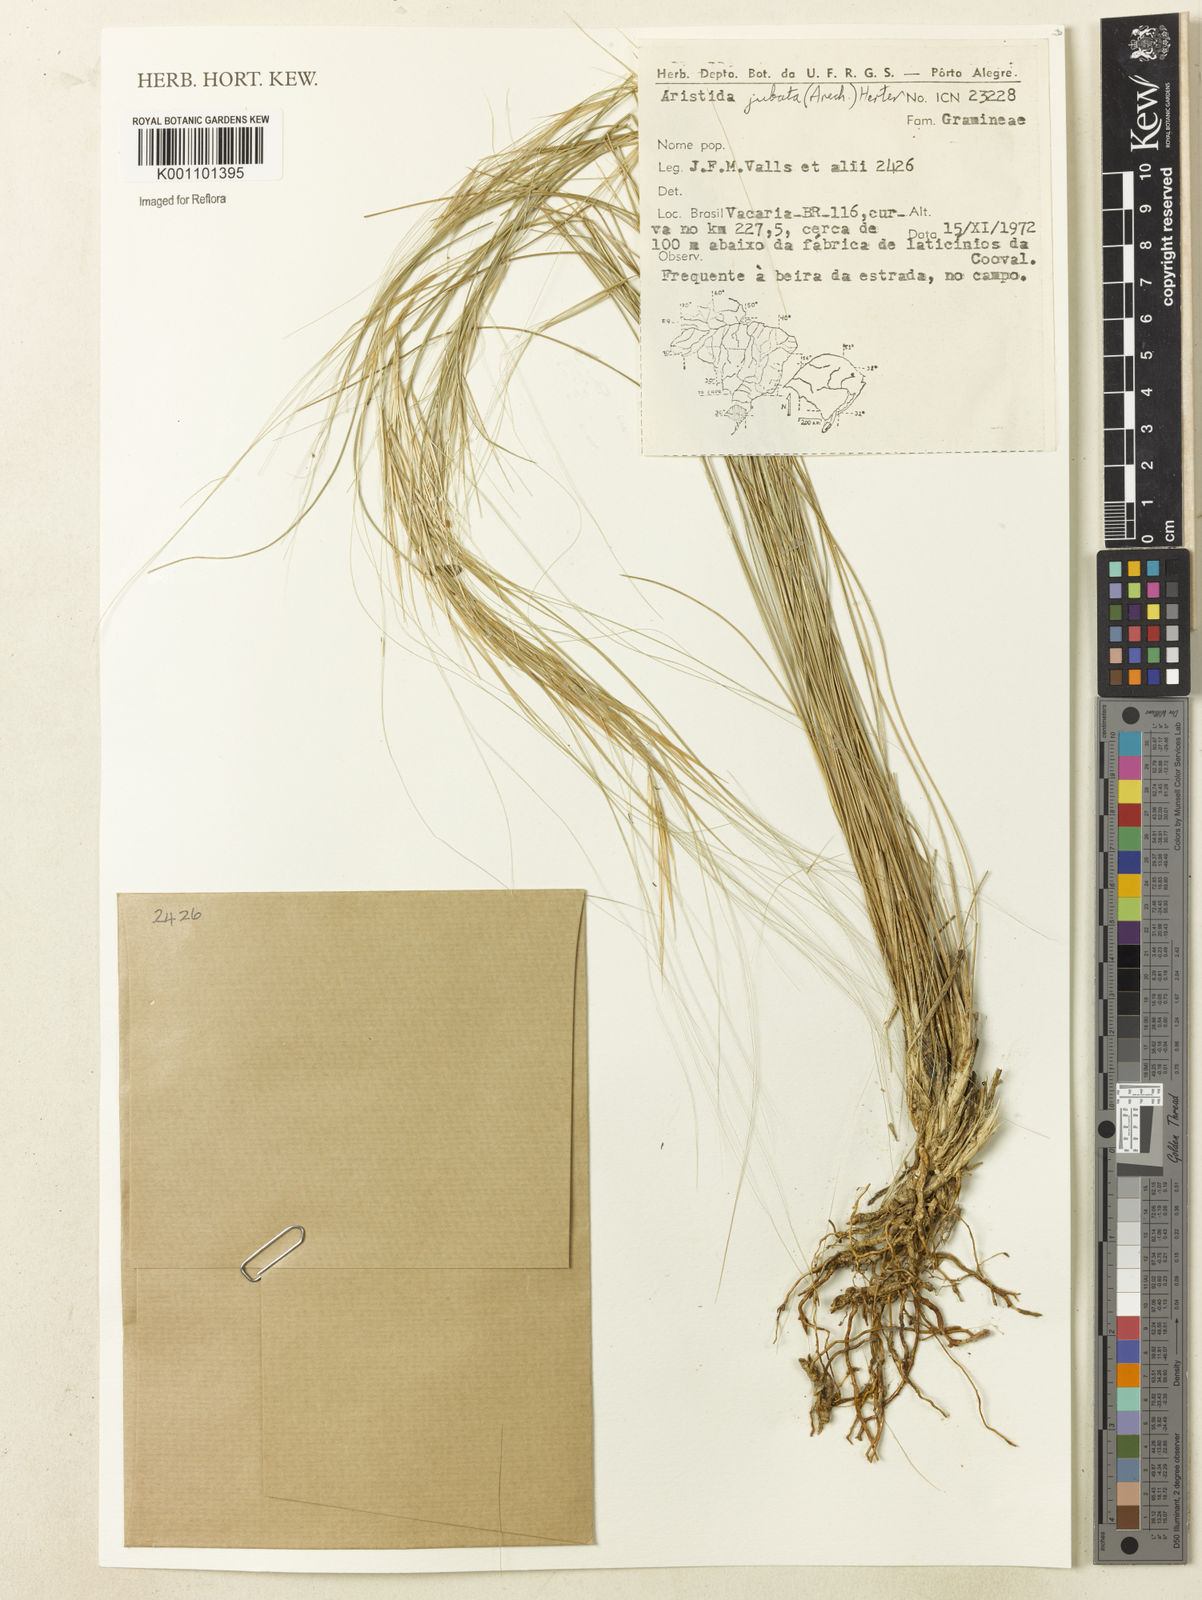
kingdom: Plantae
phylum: Tracheophyta
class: Liliopsida
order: Poales
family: Poaceae
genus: Aristida
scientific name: Aristida jubata
